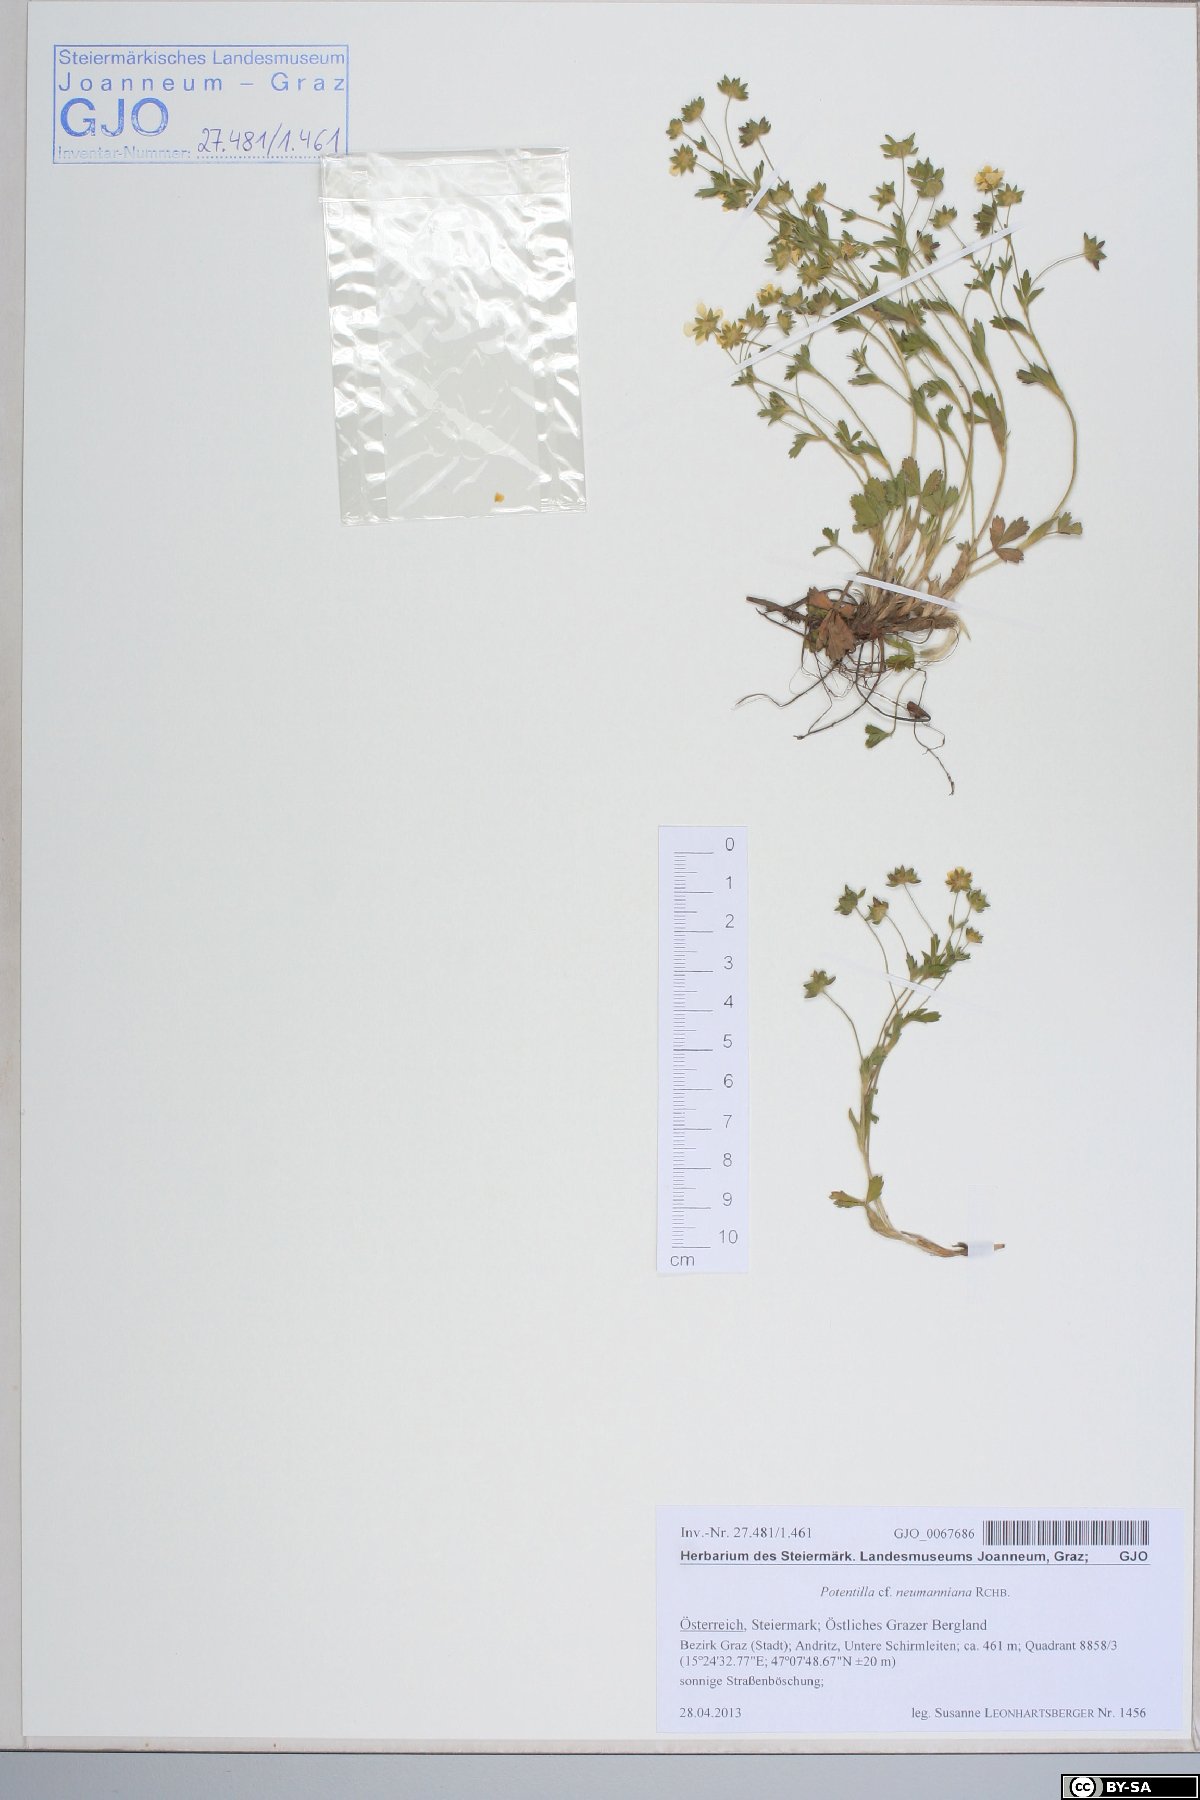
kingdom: Plantae
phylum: Tracheophyta
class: Magnoliopsida
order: Rosales
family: Rosaceae
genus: Potentilla
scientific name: Potentilla verna
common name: Spring cinquefoil
